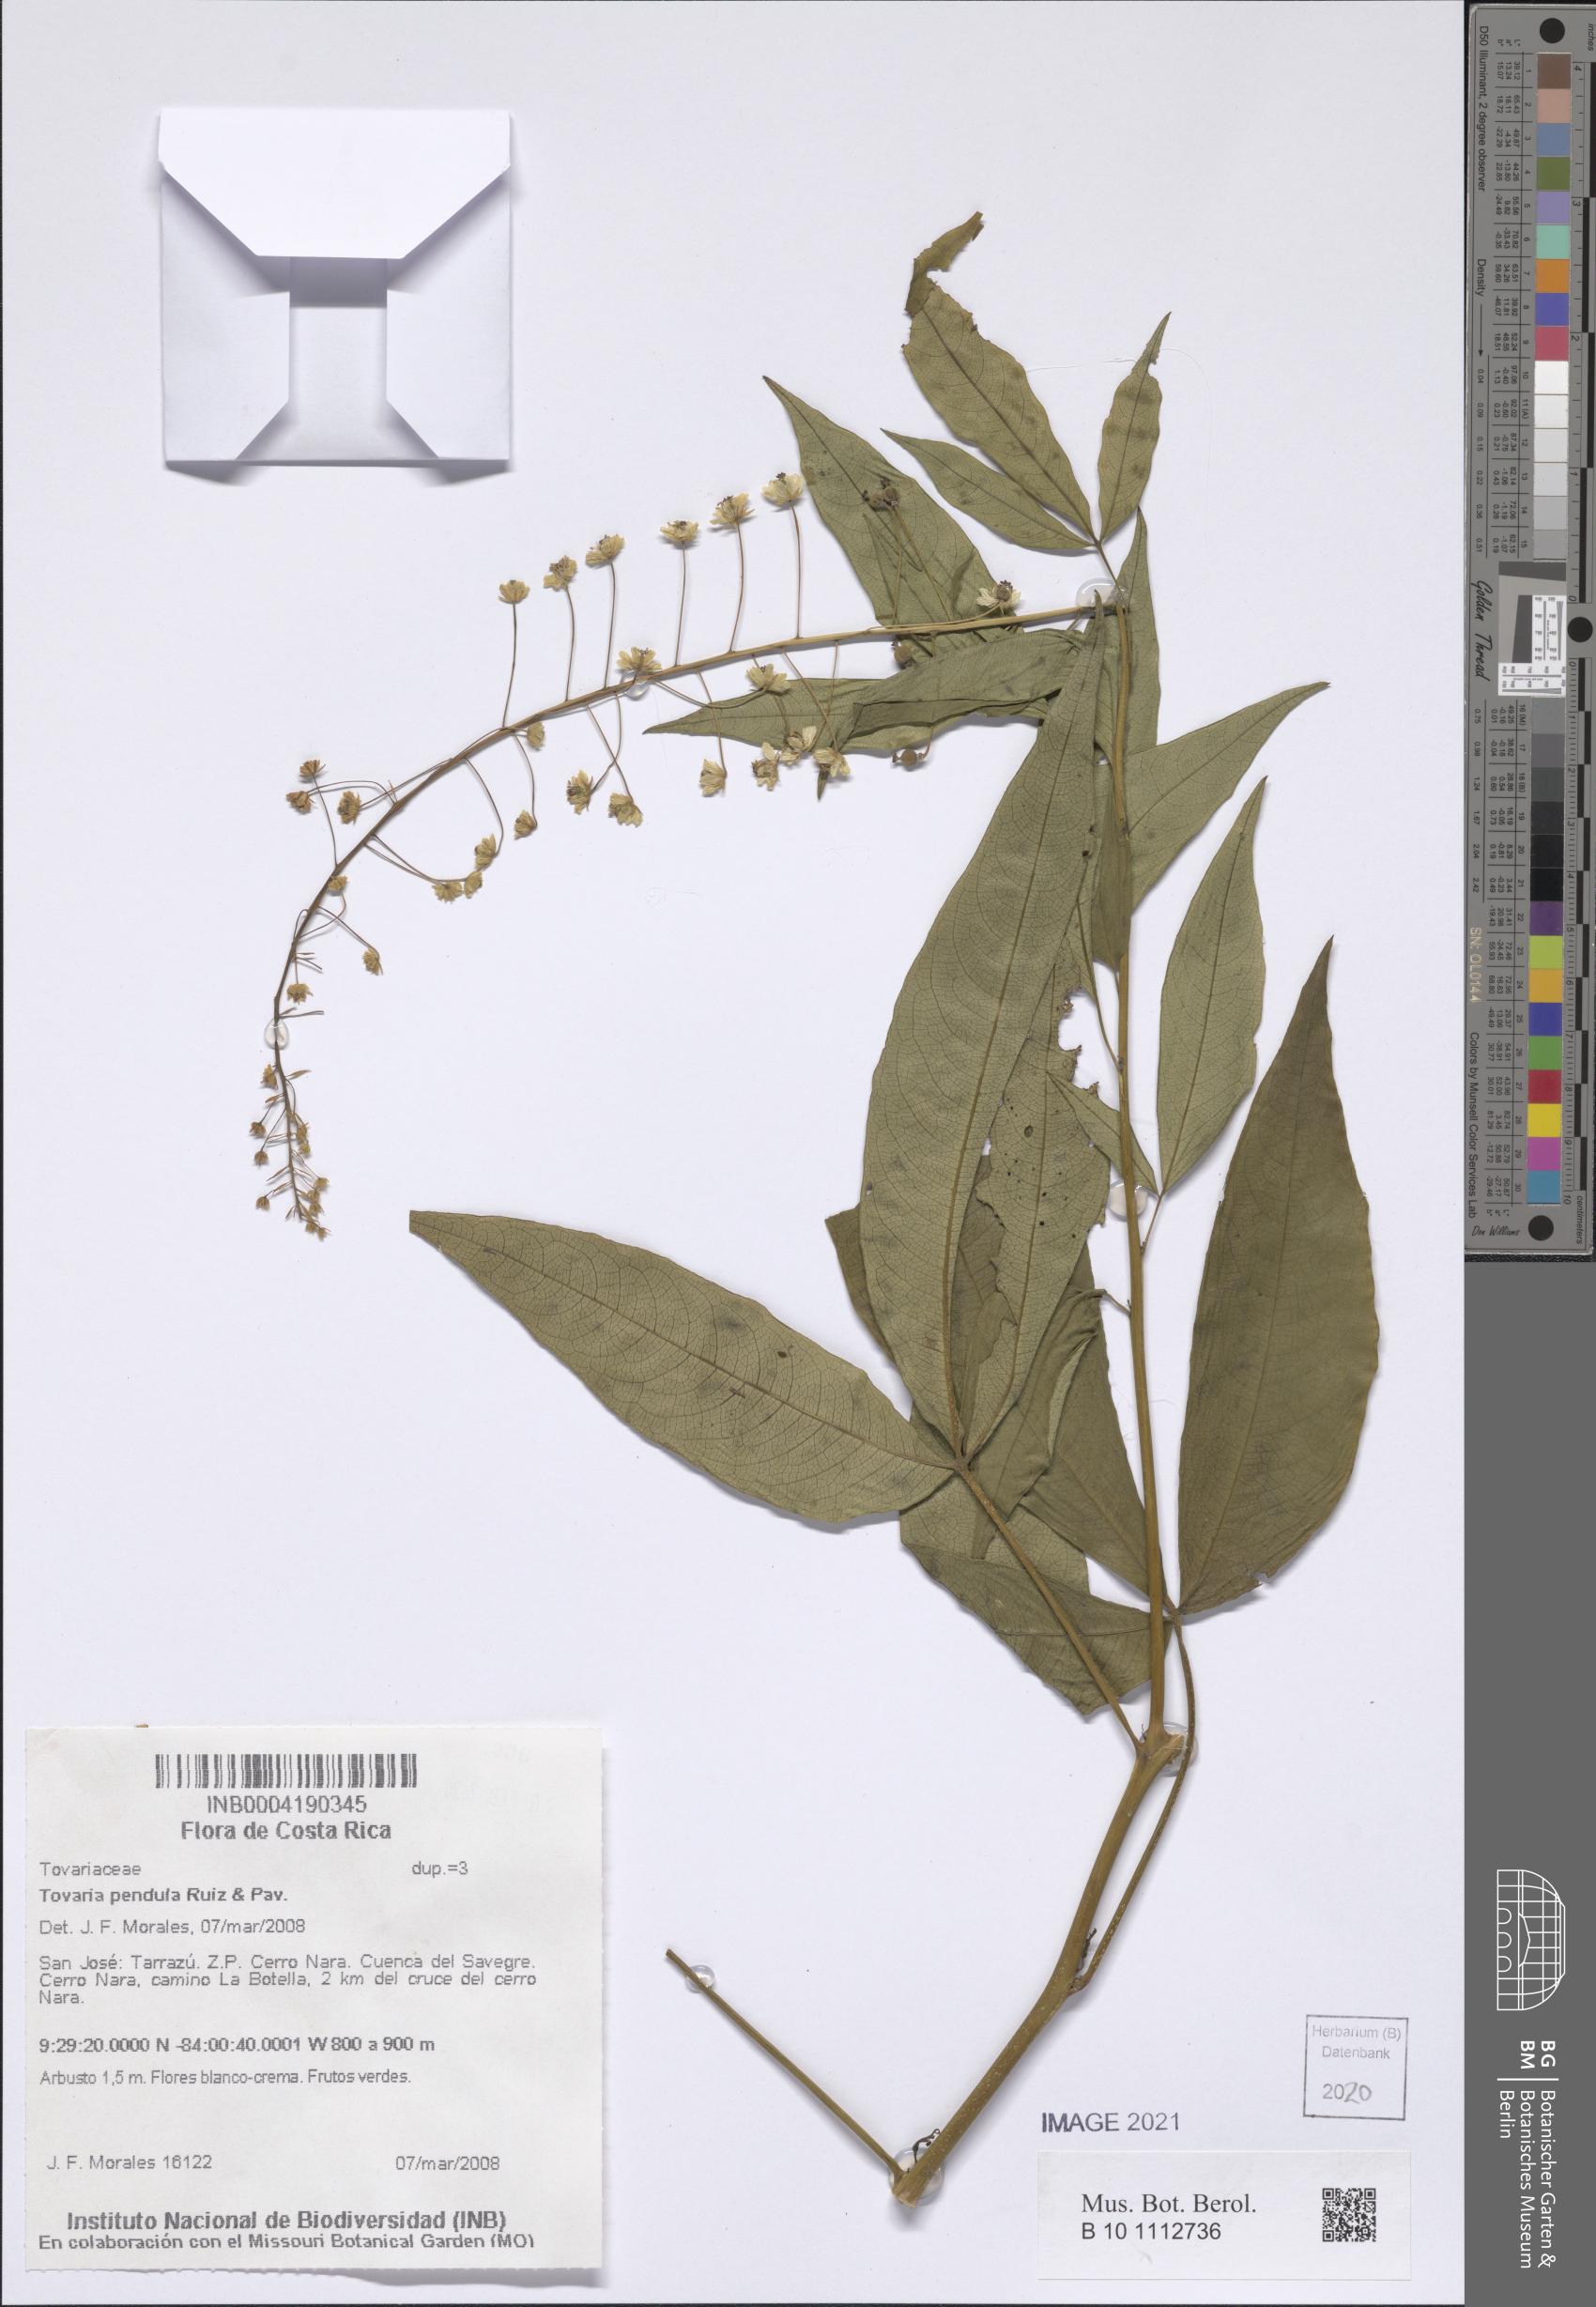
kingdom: Plantae
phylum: Tracheophyta
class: Magnoliopsida
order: Brassicales
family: Tovariaceae
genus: Tovaria
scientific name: Tovaria pendula
